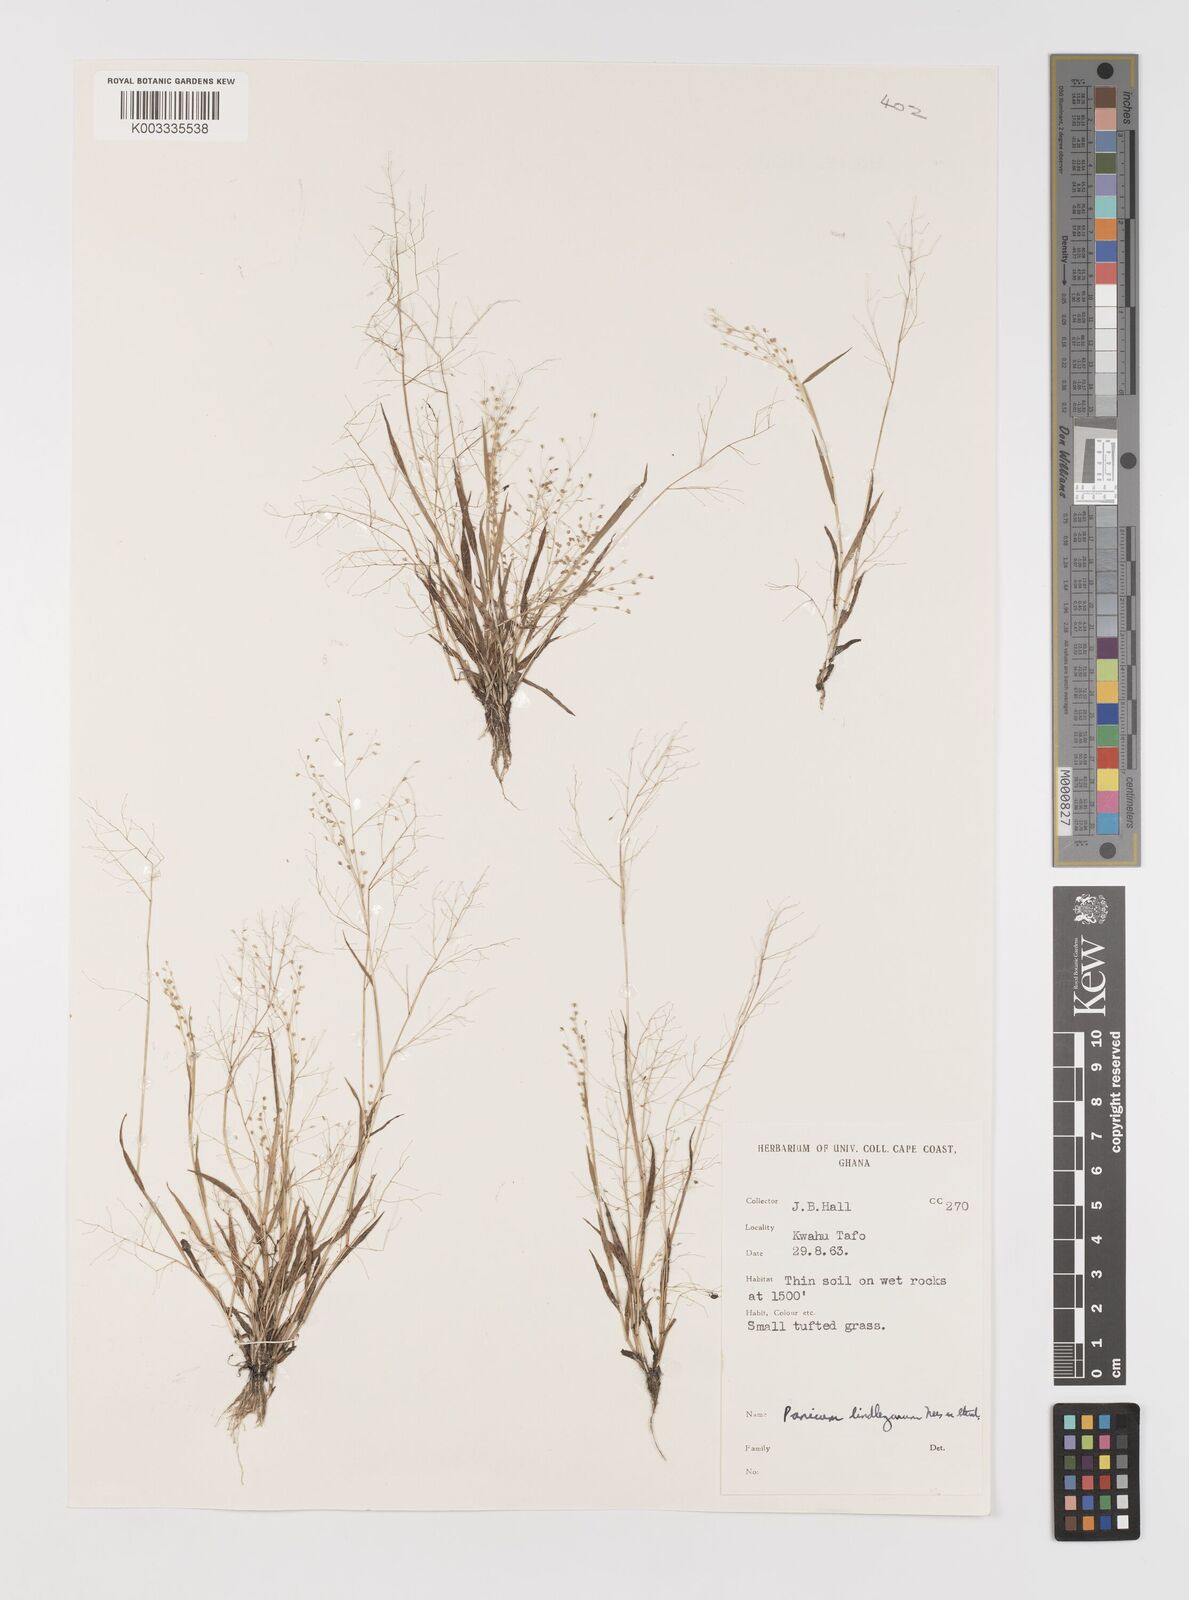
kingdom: Plantae
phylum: Tracheophyta
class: Liliopsida
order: Poales
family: Poaceae
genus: Trichanthecium
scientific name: Trichanthecium tenellum
